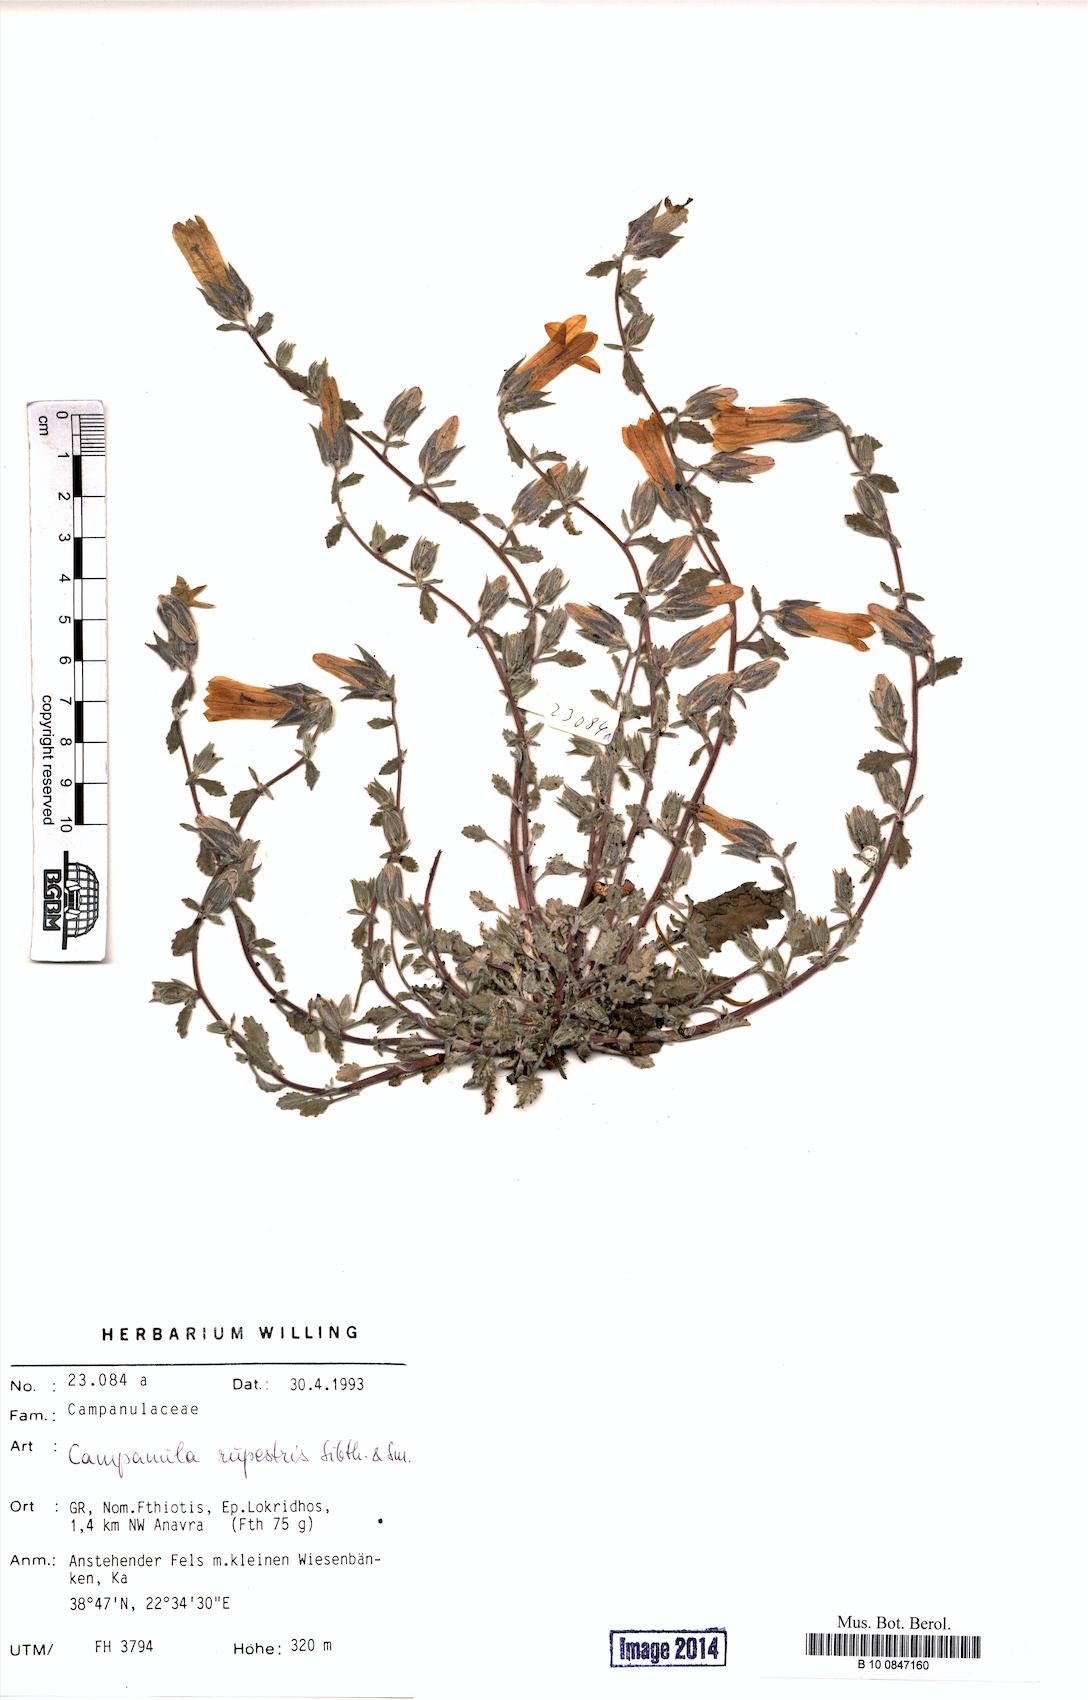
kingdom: Plantae
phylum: Tracheophyta
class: Magnoliopsida
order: Asterales
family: Campanulaceae
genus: Campanula
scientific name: Campanula rupestris
